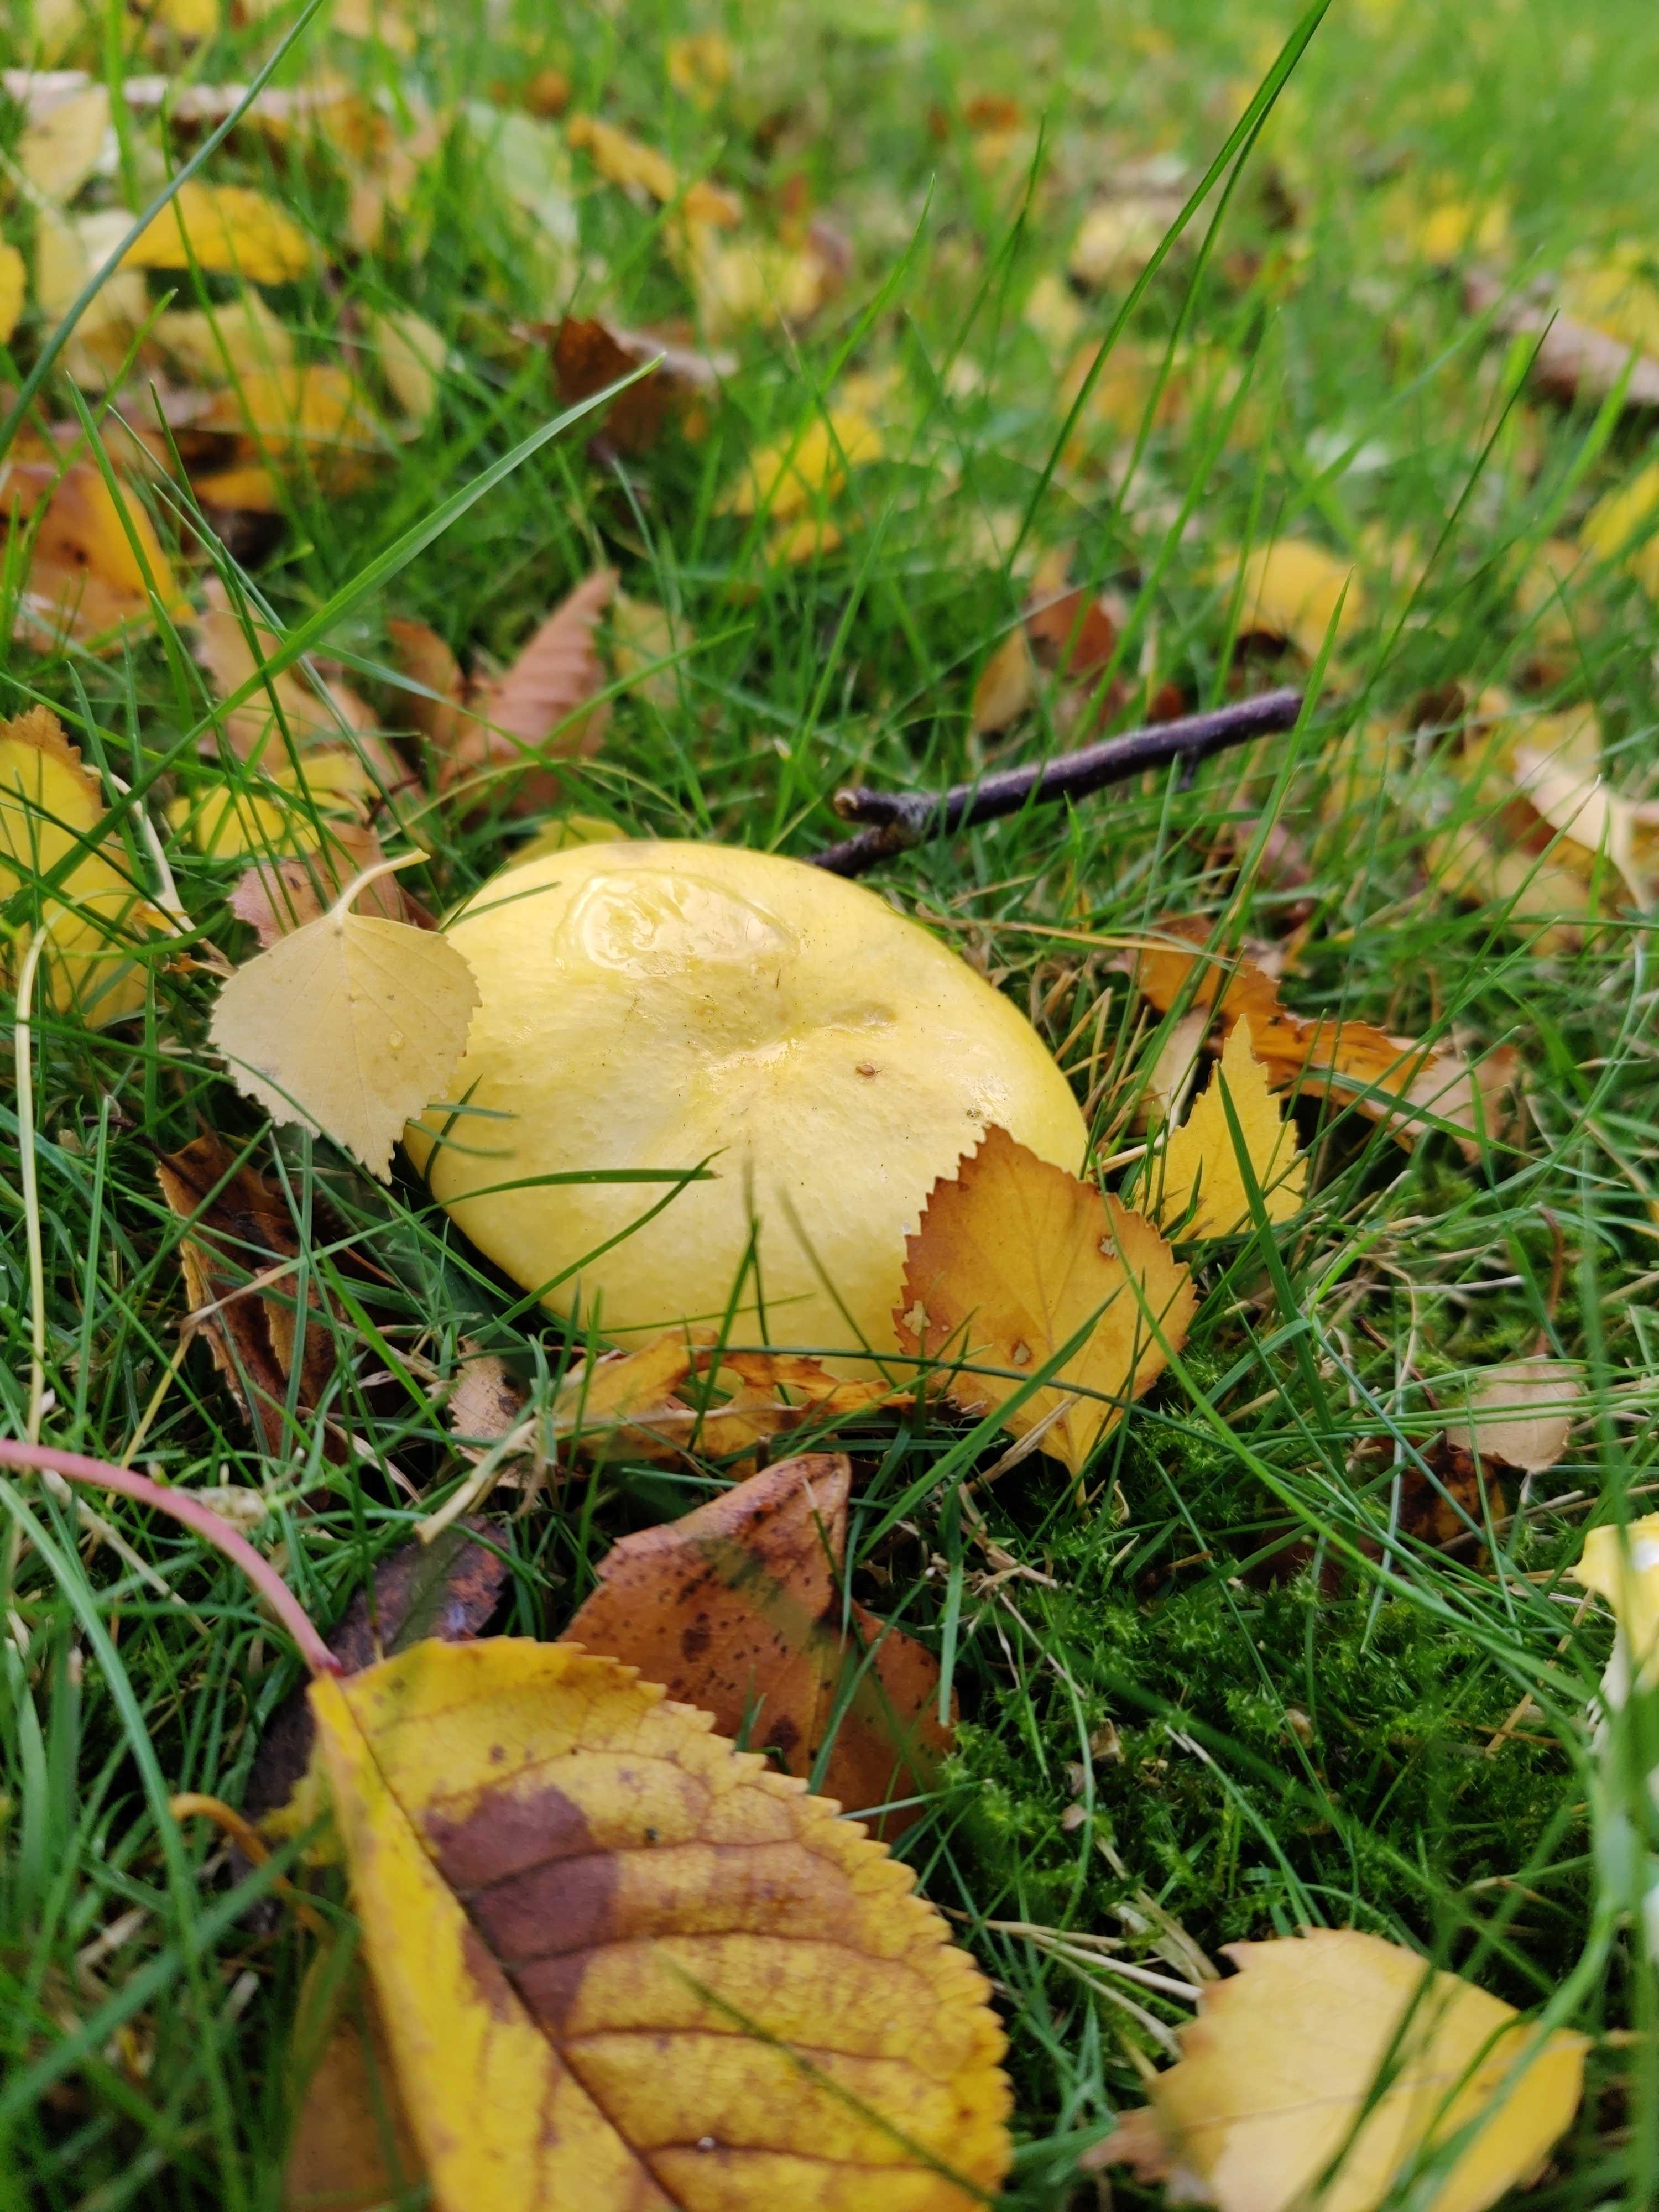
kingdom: Fungi
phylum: Basidiomycota
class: Agaricomycetes
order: Russulales
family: Russulaceae
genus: Russula
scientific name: Russula claroflava
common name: birke-skørhat
